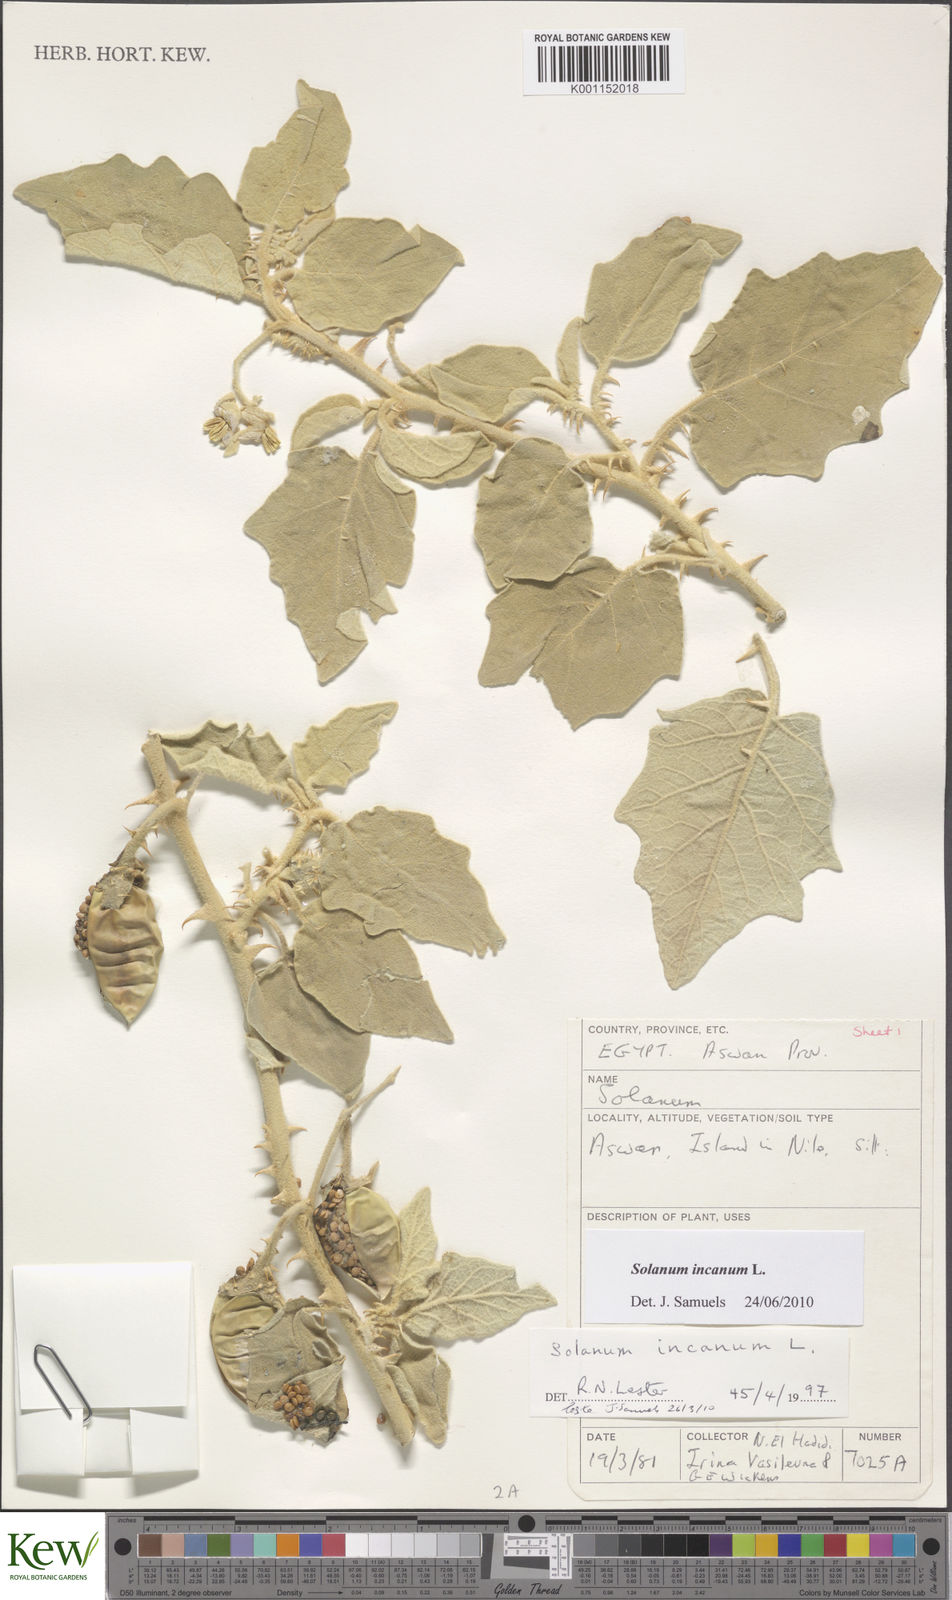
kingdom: Plantae
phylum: Tracheophyta
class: Magnoliopsida
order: Solanales
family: Solanaceae
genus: Solanum
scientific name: Solanum incanum
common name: Bitter apple
